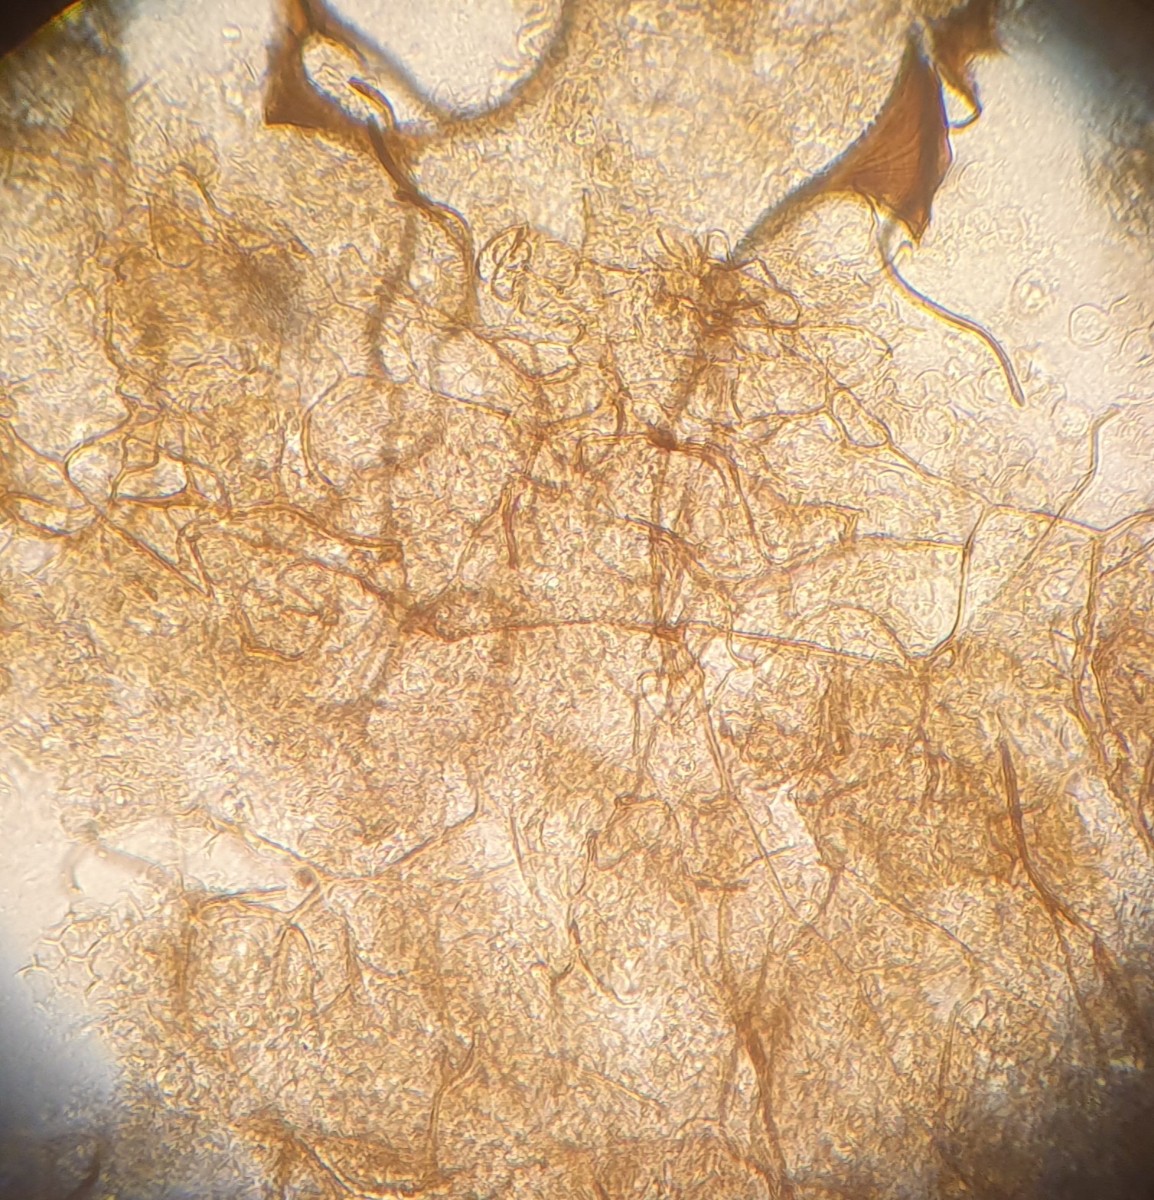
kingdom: Protozoa
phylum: Mycetozoa
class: Myxomycetes
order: Stemonitidales
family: Stemonitidaceae
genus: Stemonitopsis
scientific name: Stemonitopsis typhina
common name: skinnende støvkølle
